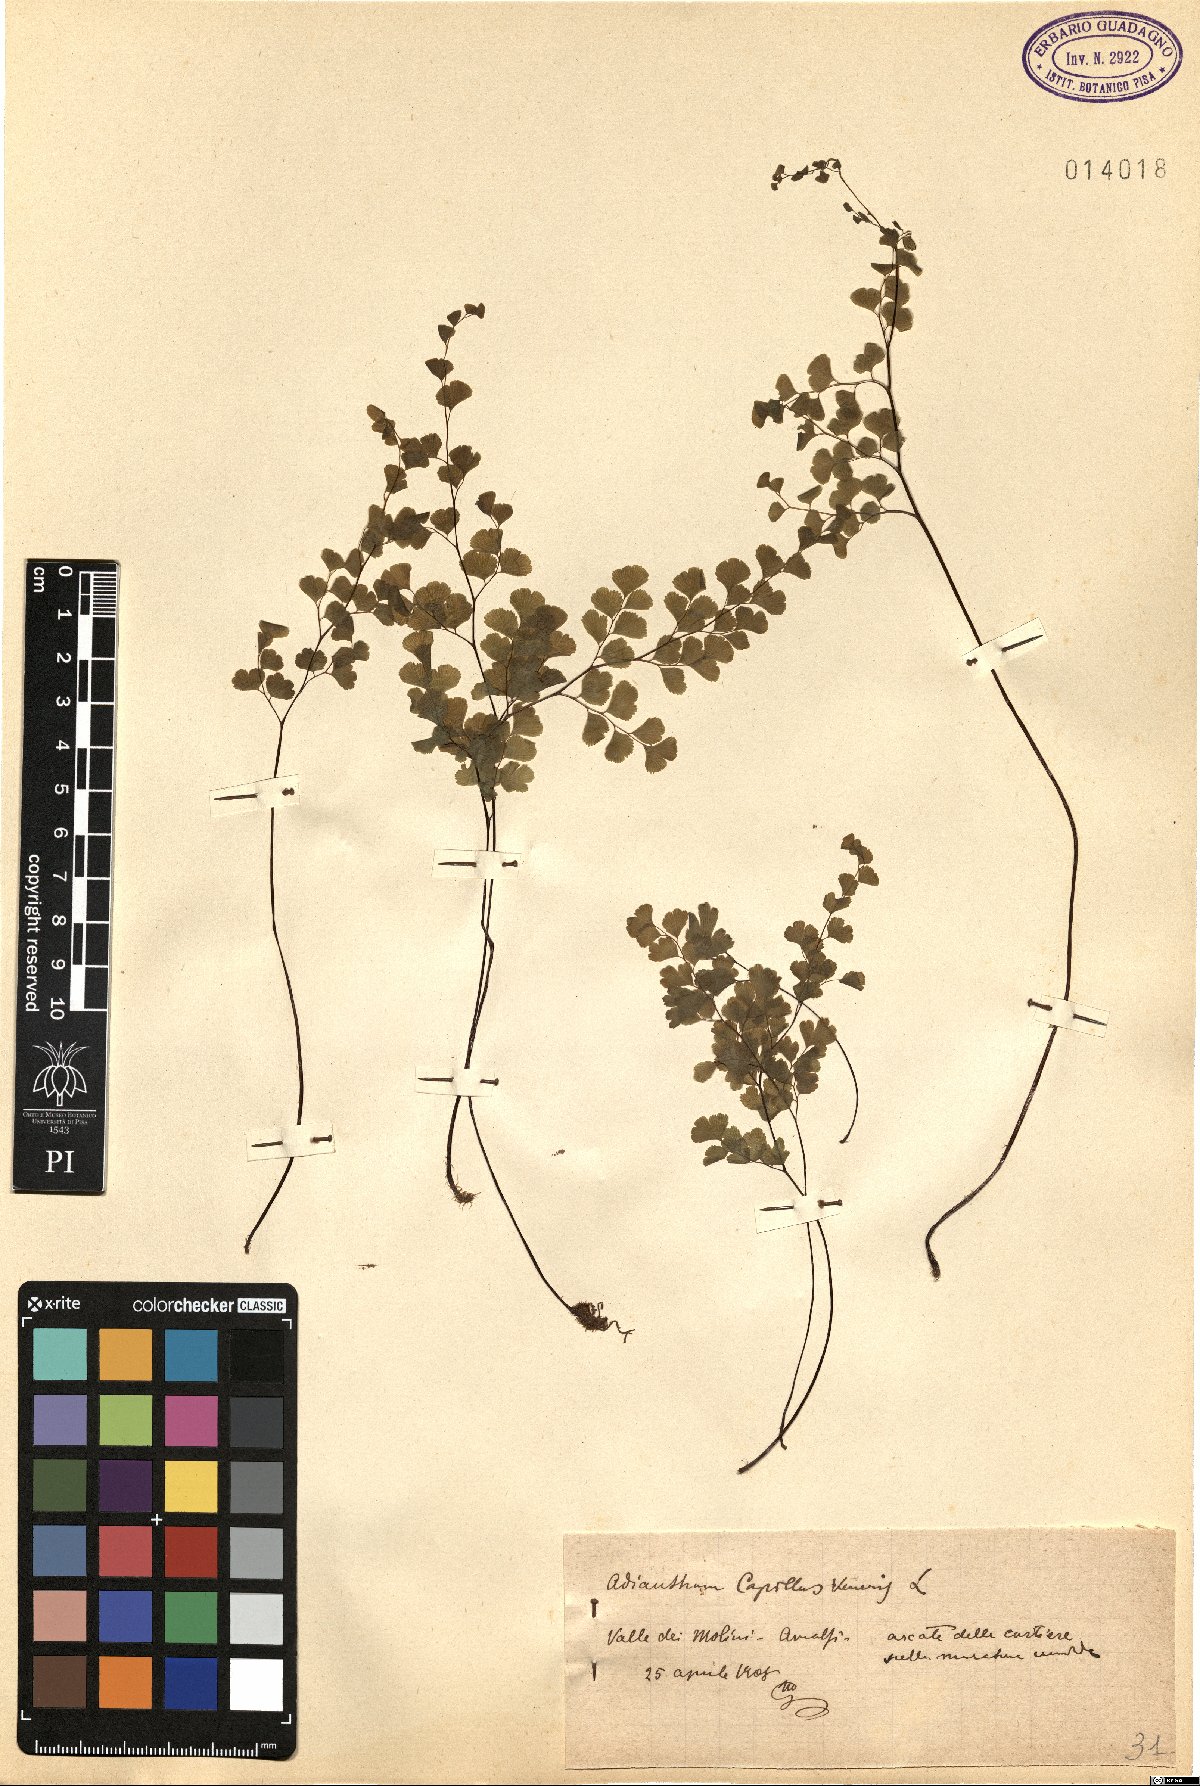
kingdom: Plantae
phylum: Tracheophyta
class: Polypodiopsida
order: Polypodiales
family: Pteridaceae
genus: Adiantum
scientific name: Adiantum capillus-veneris
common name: Maidenhair fern
